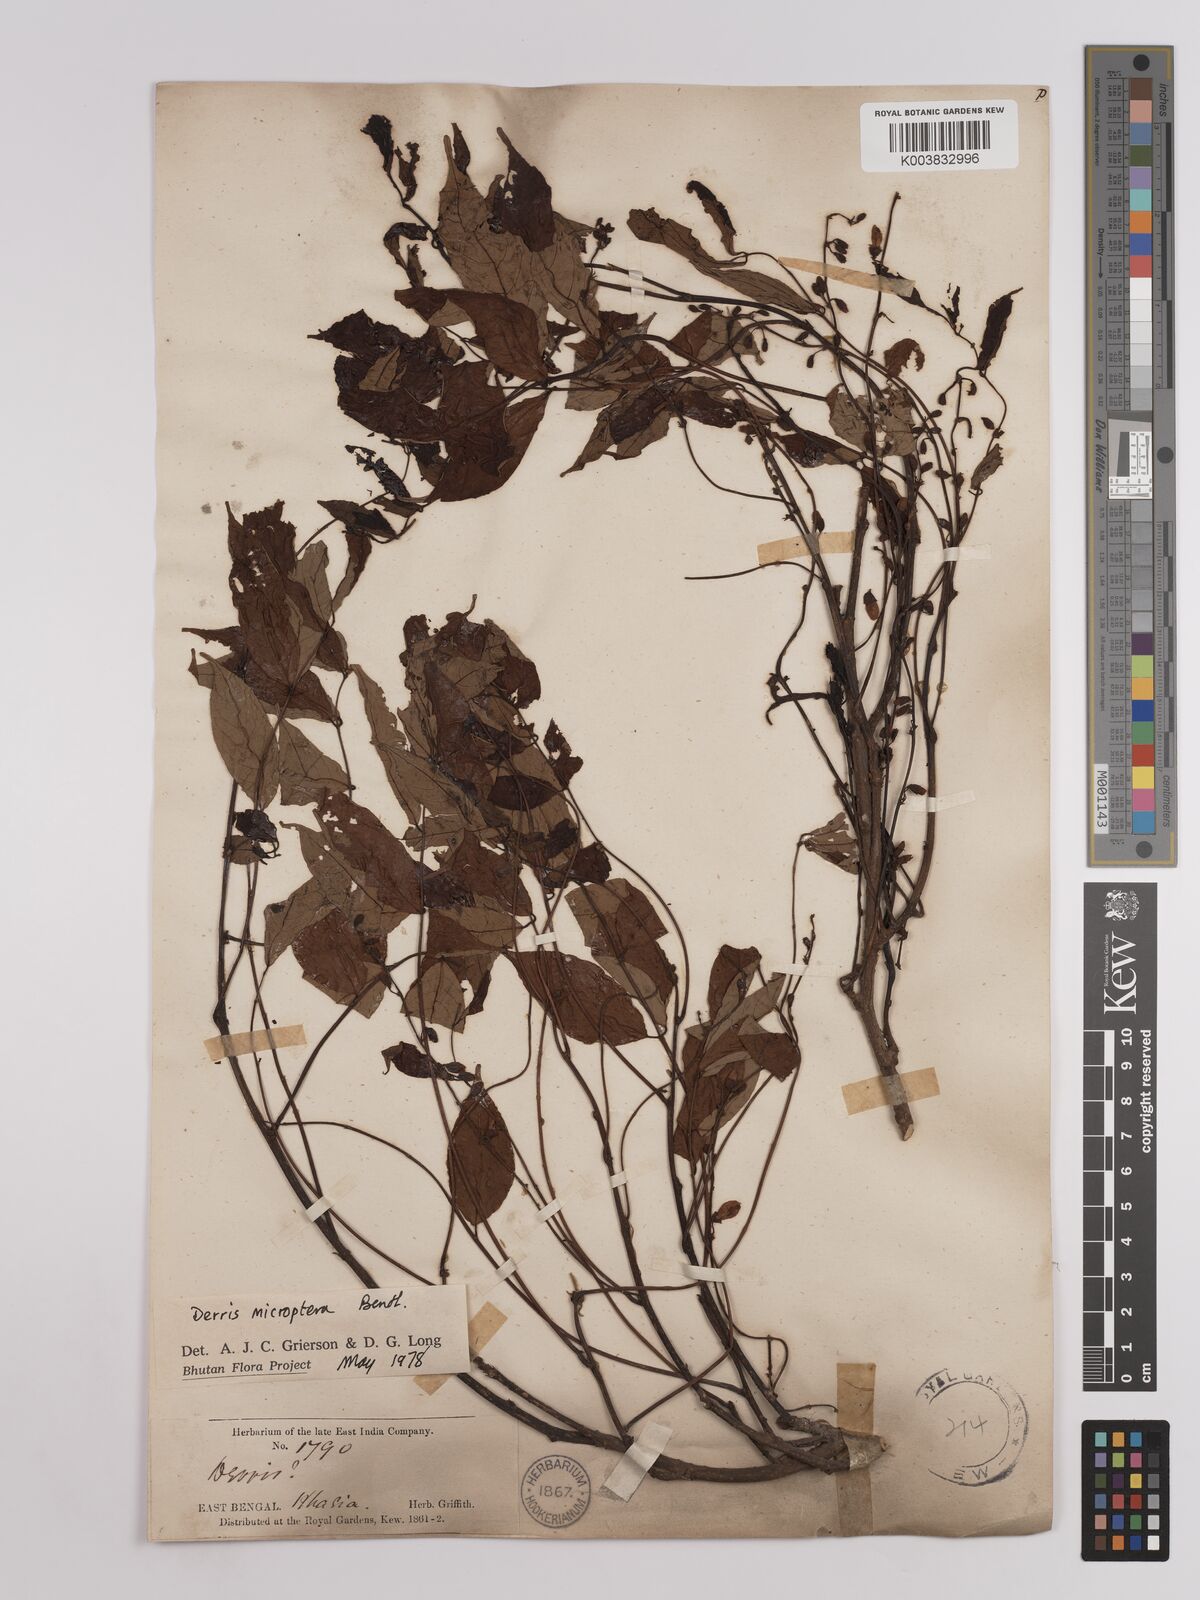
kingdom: Plantae
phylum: Tracheophyta
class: Magnoliopsida
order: Fabales
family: Fabaceae
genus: Derris
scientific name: Derris monticola
